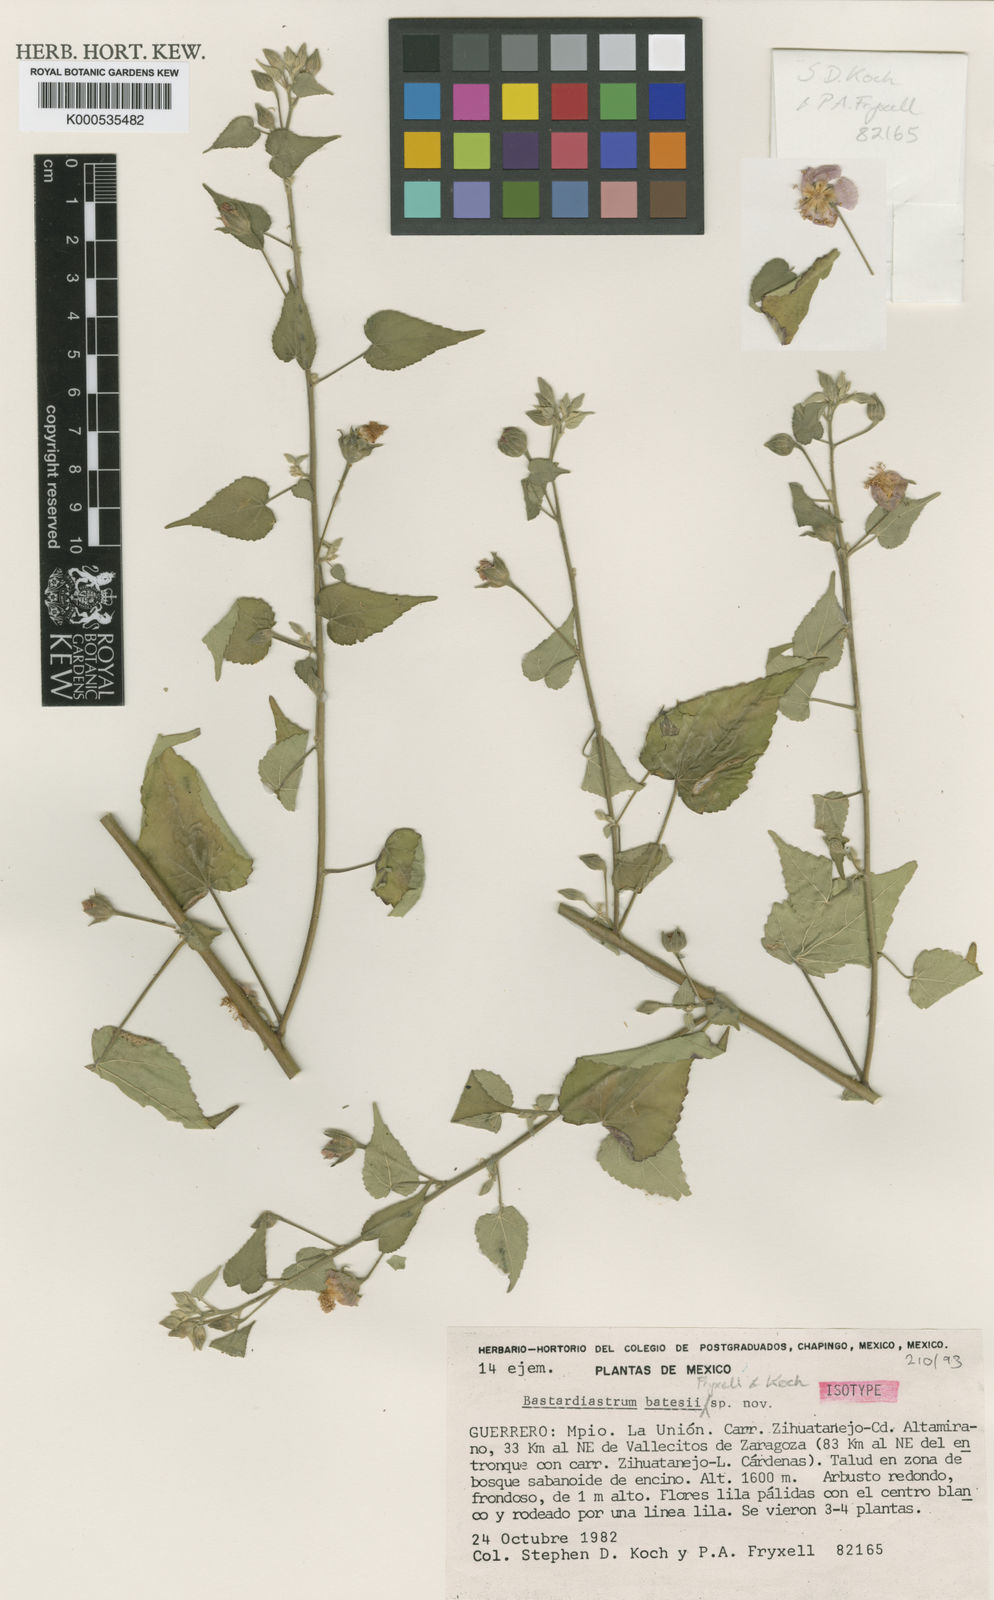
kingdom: Plantae
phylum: Tracheophyta
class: Magnoliopsida
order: Malvales
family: Malvaceae
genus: Bastardiastrum
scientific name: Bastardiastrum batesii
